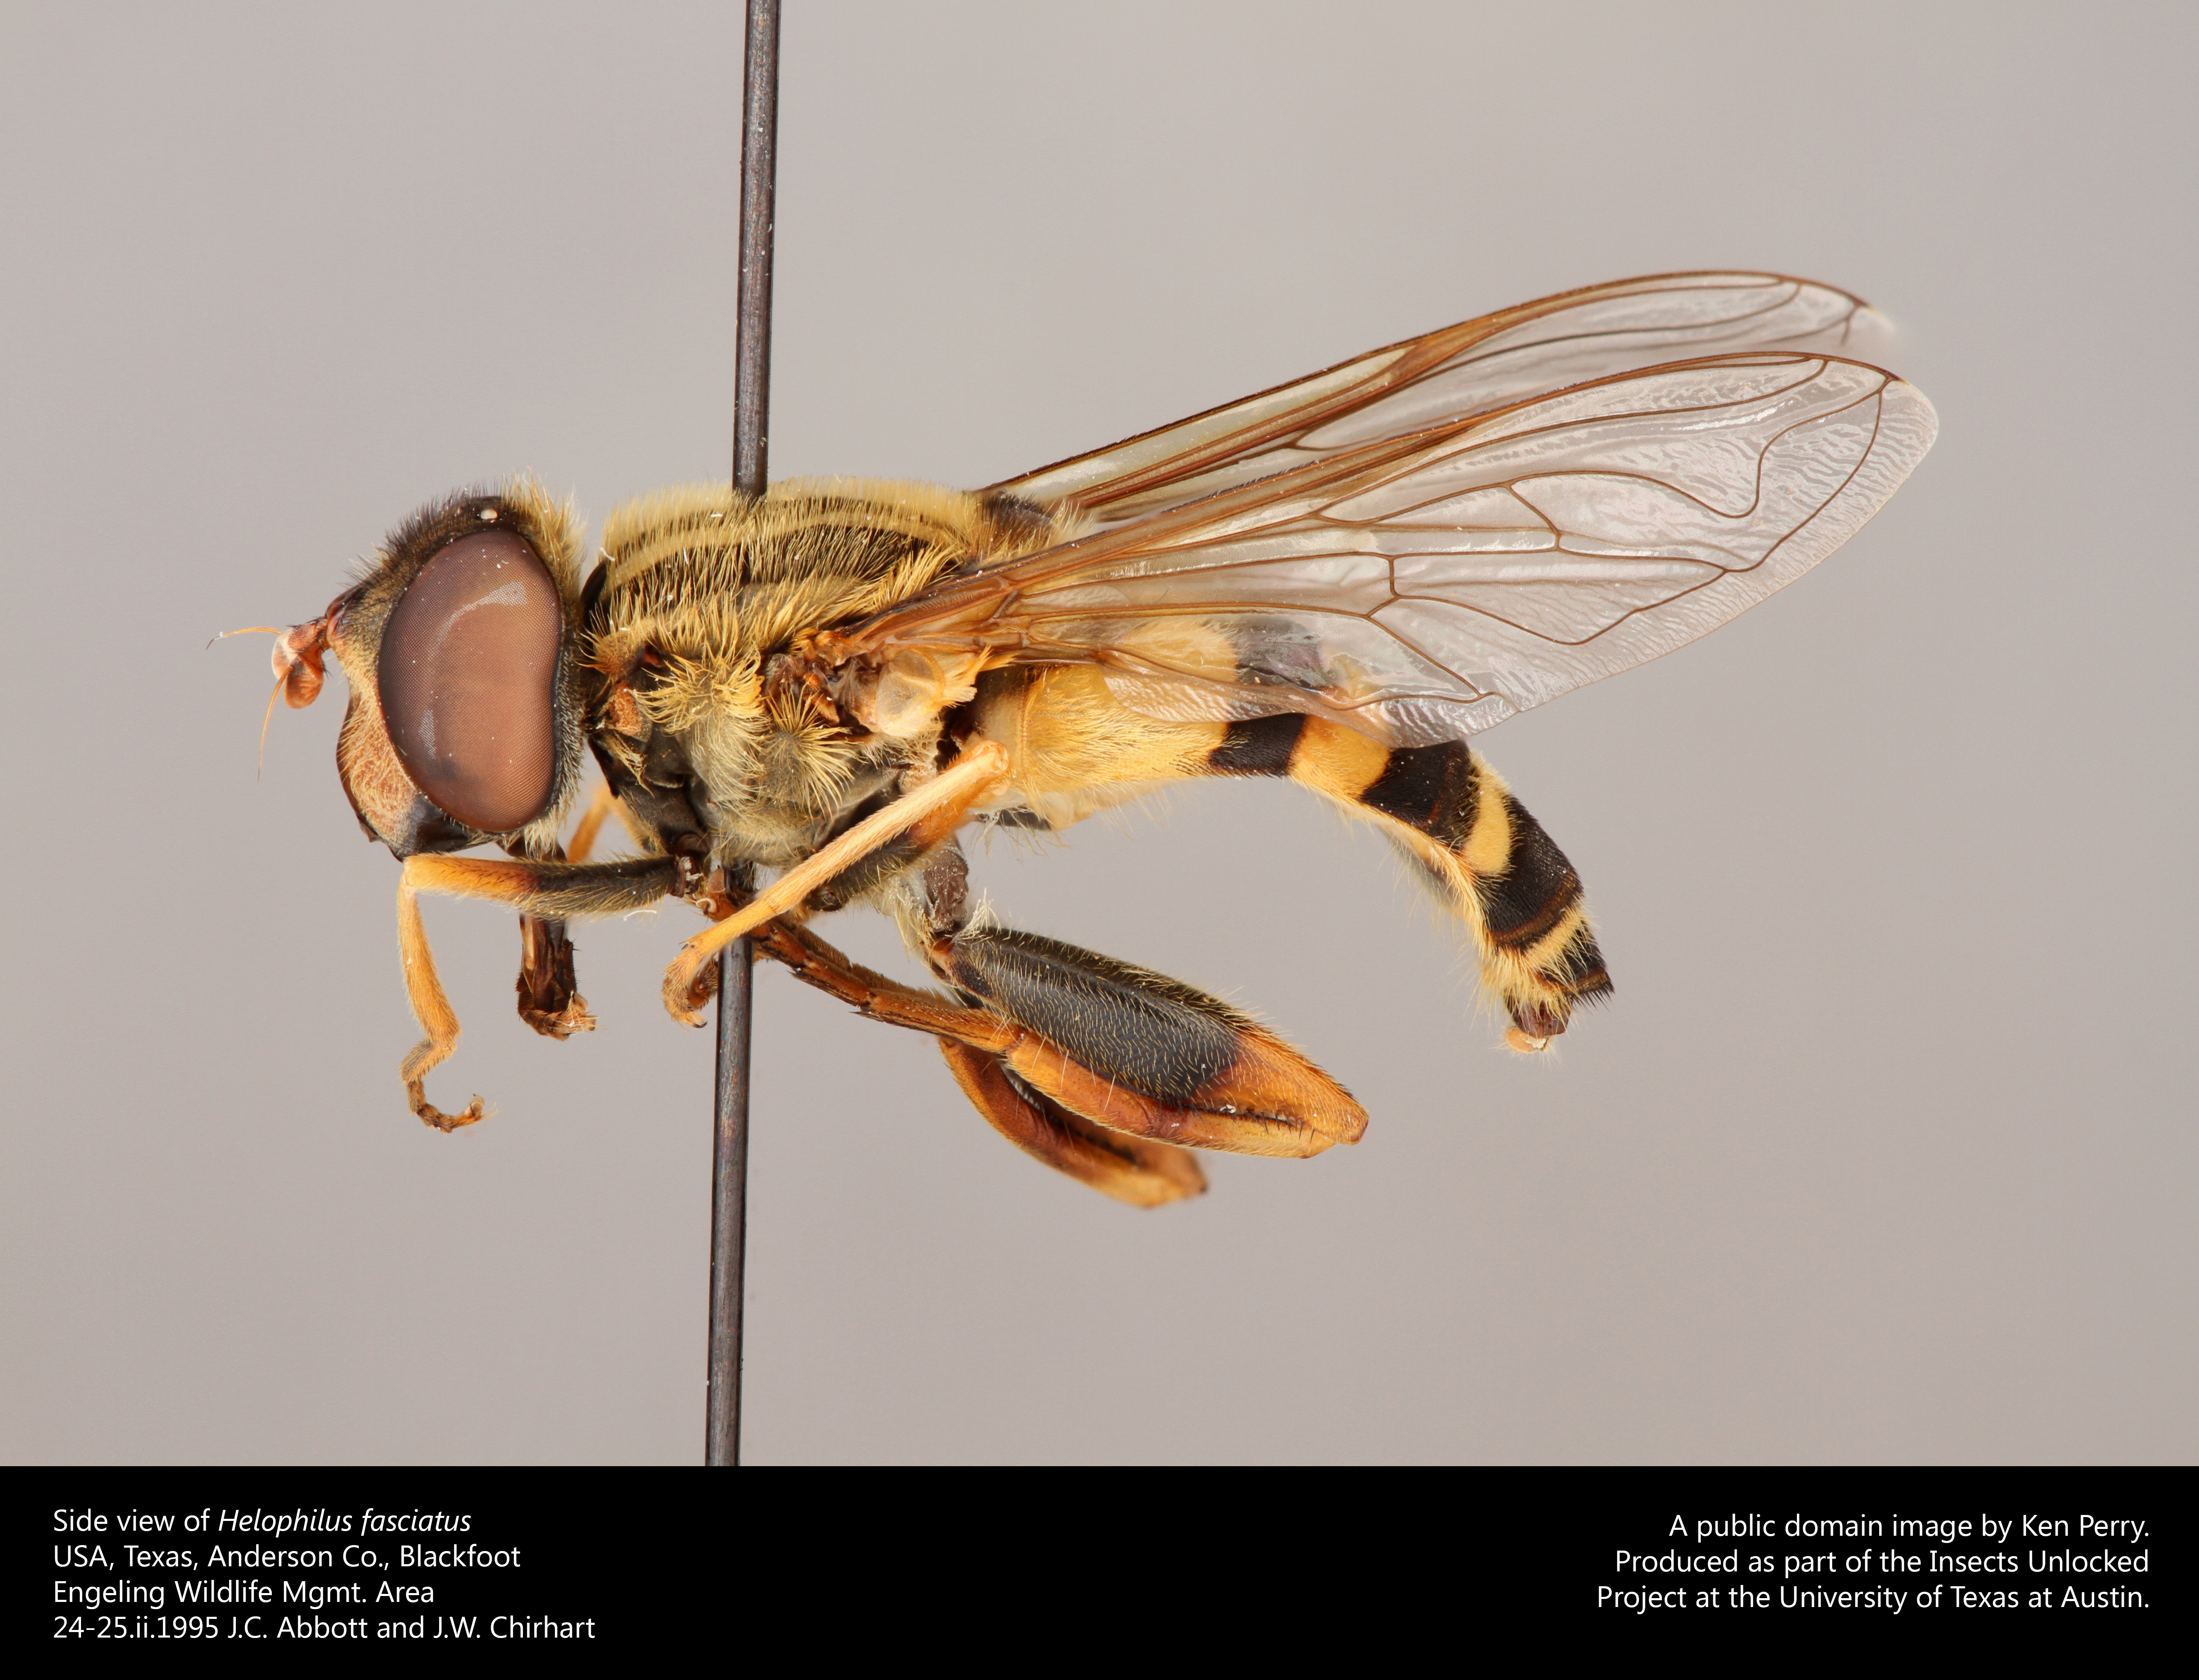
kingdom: Animalia
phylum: Arthropoda
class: Insecta
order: Diptera
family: Syrphidae
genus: Helophilus
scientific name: Helophilus fasciatus
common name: Narrow-headed marsh fly
